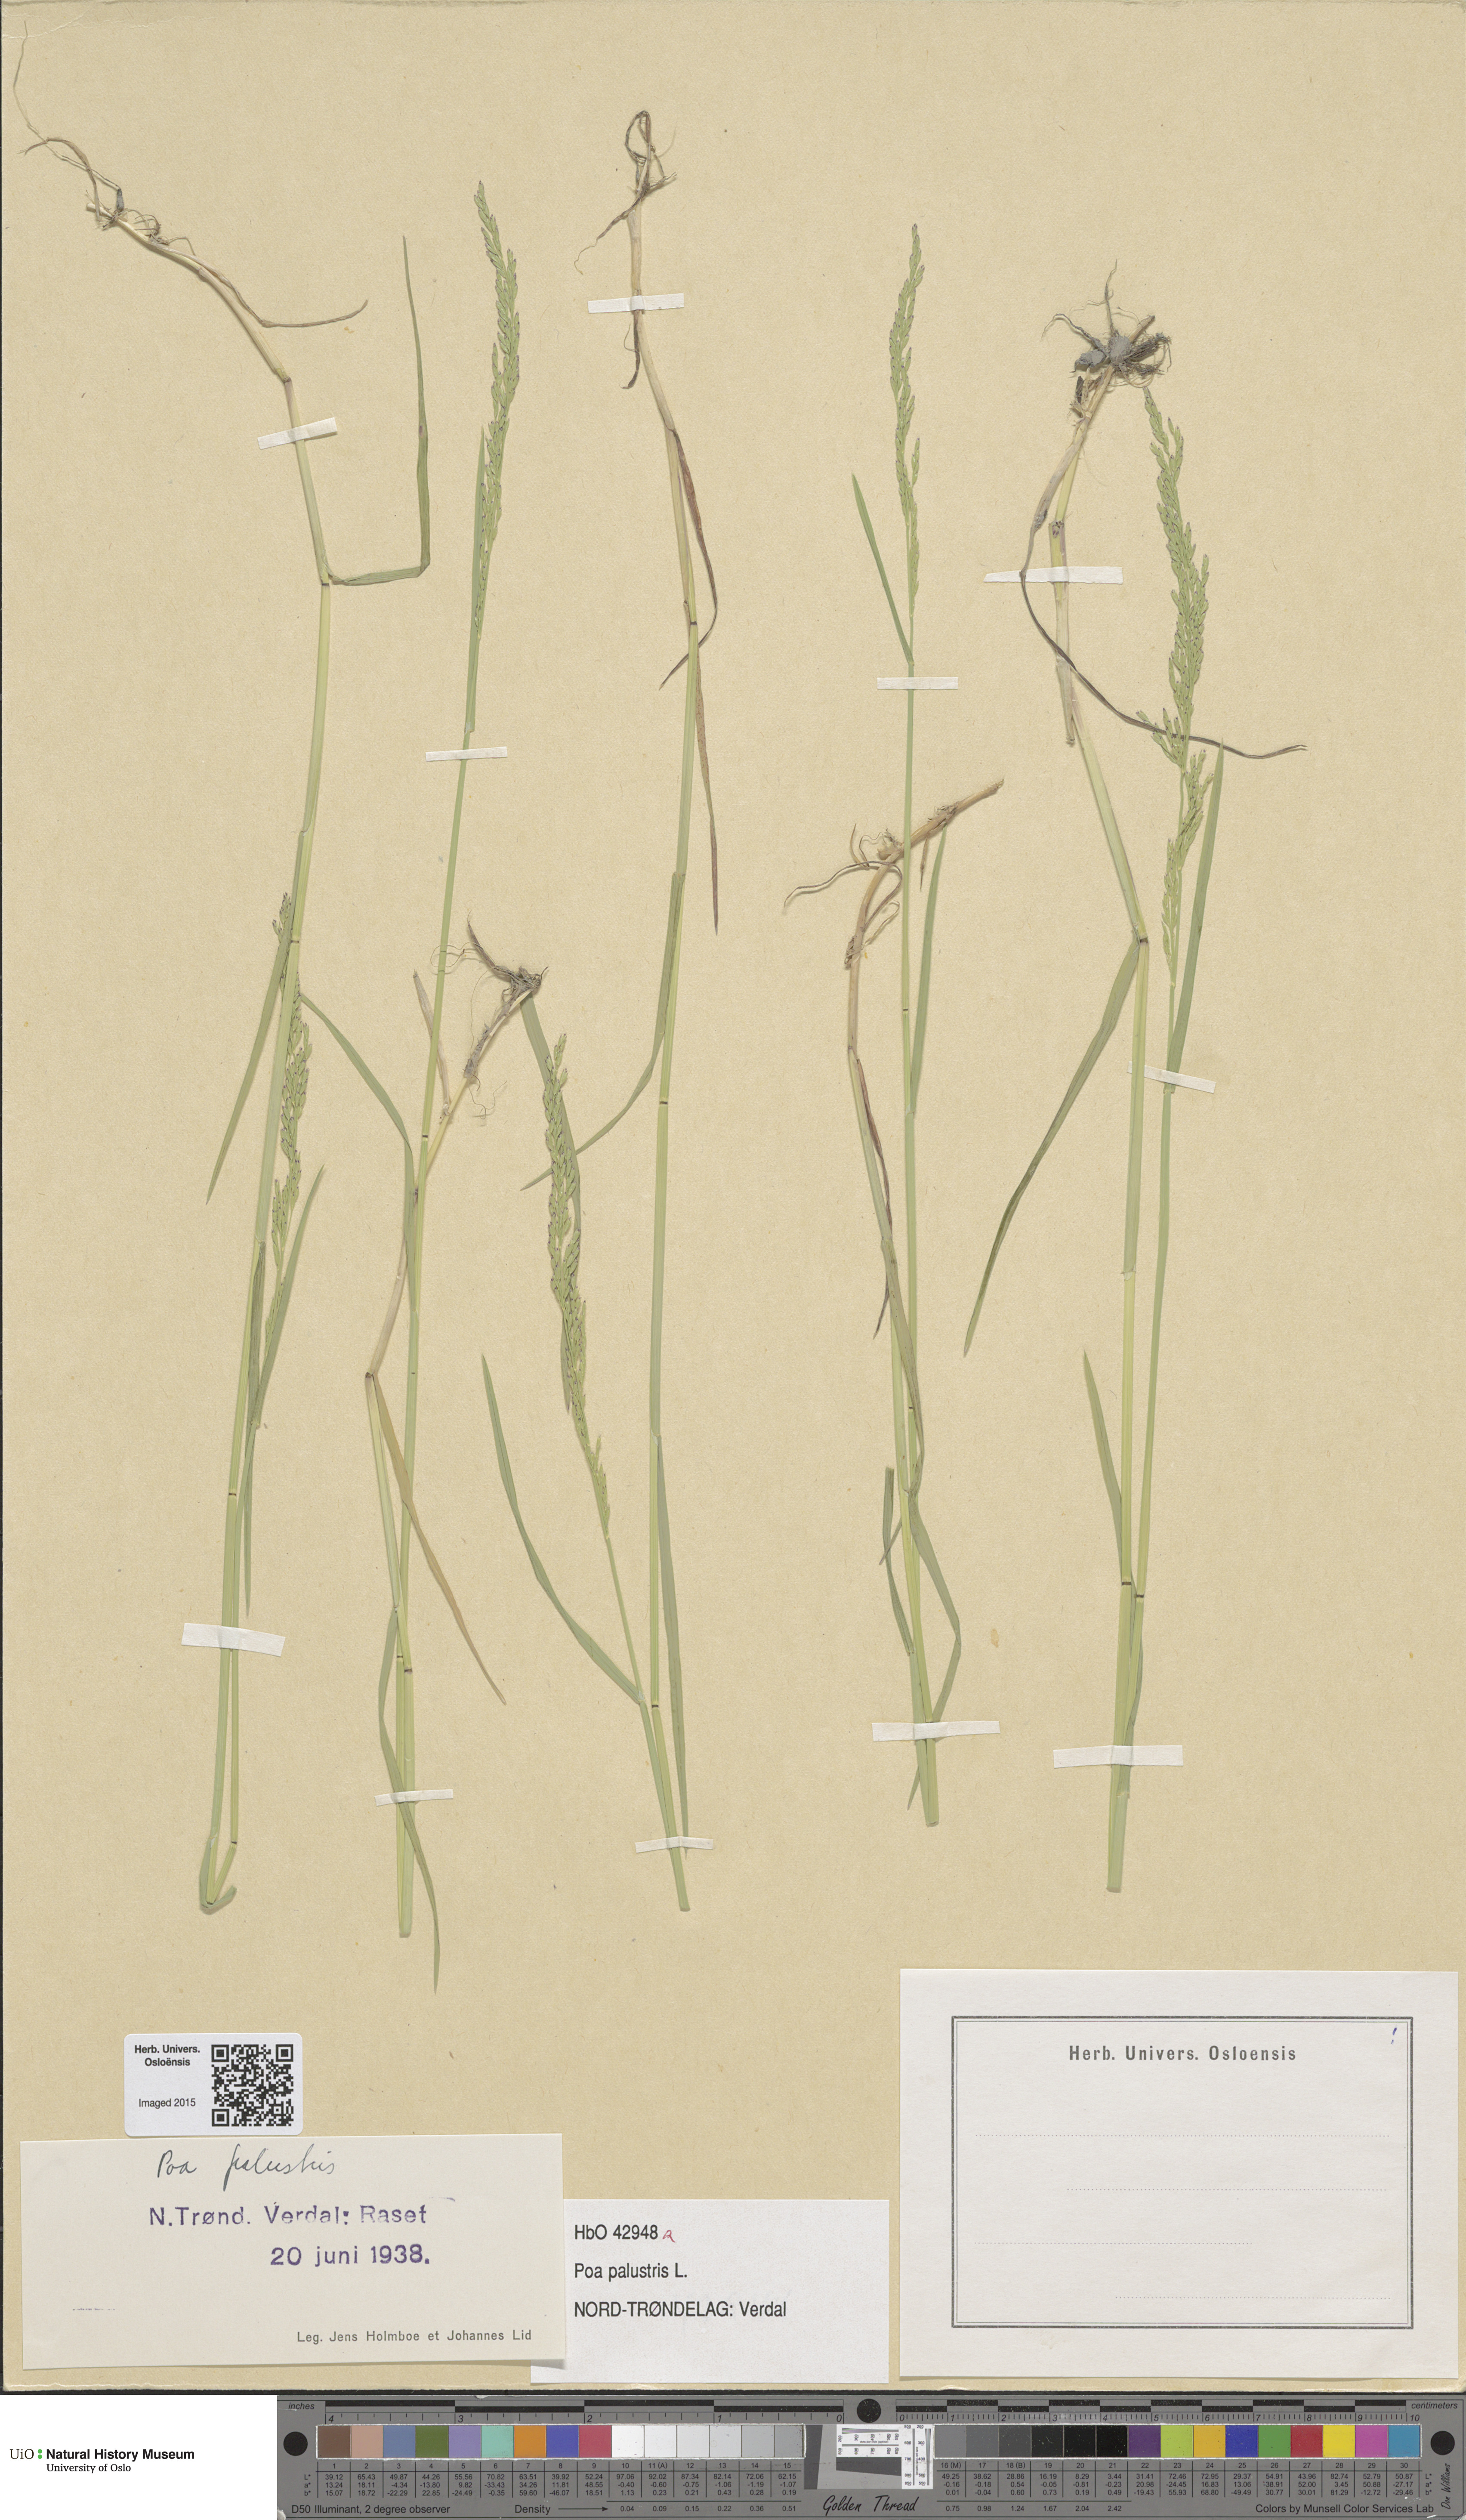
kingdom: Plantae
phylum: Tracheophyta
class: Liliopsida
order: Poales
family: Poaceae
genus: Poa
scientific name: Poa palustris
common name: Swamp meadow-grass
